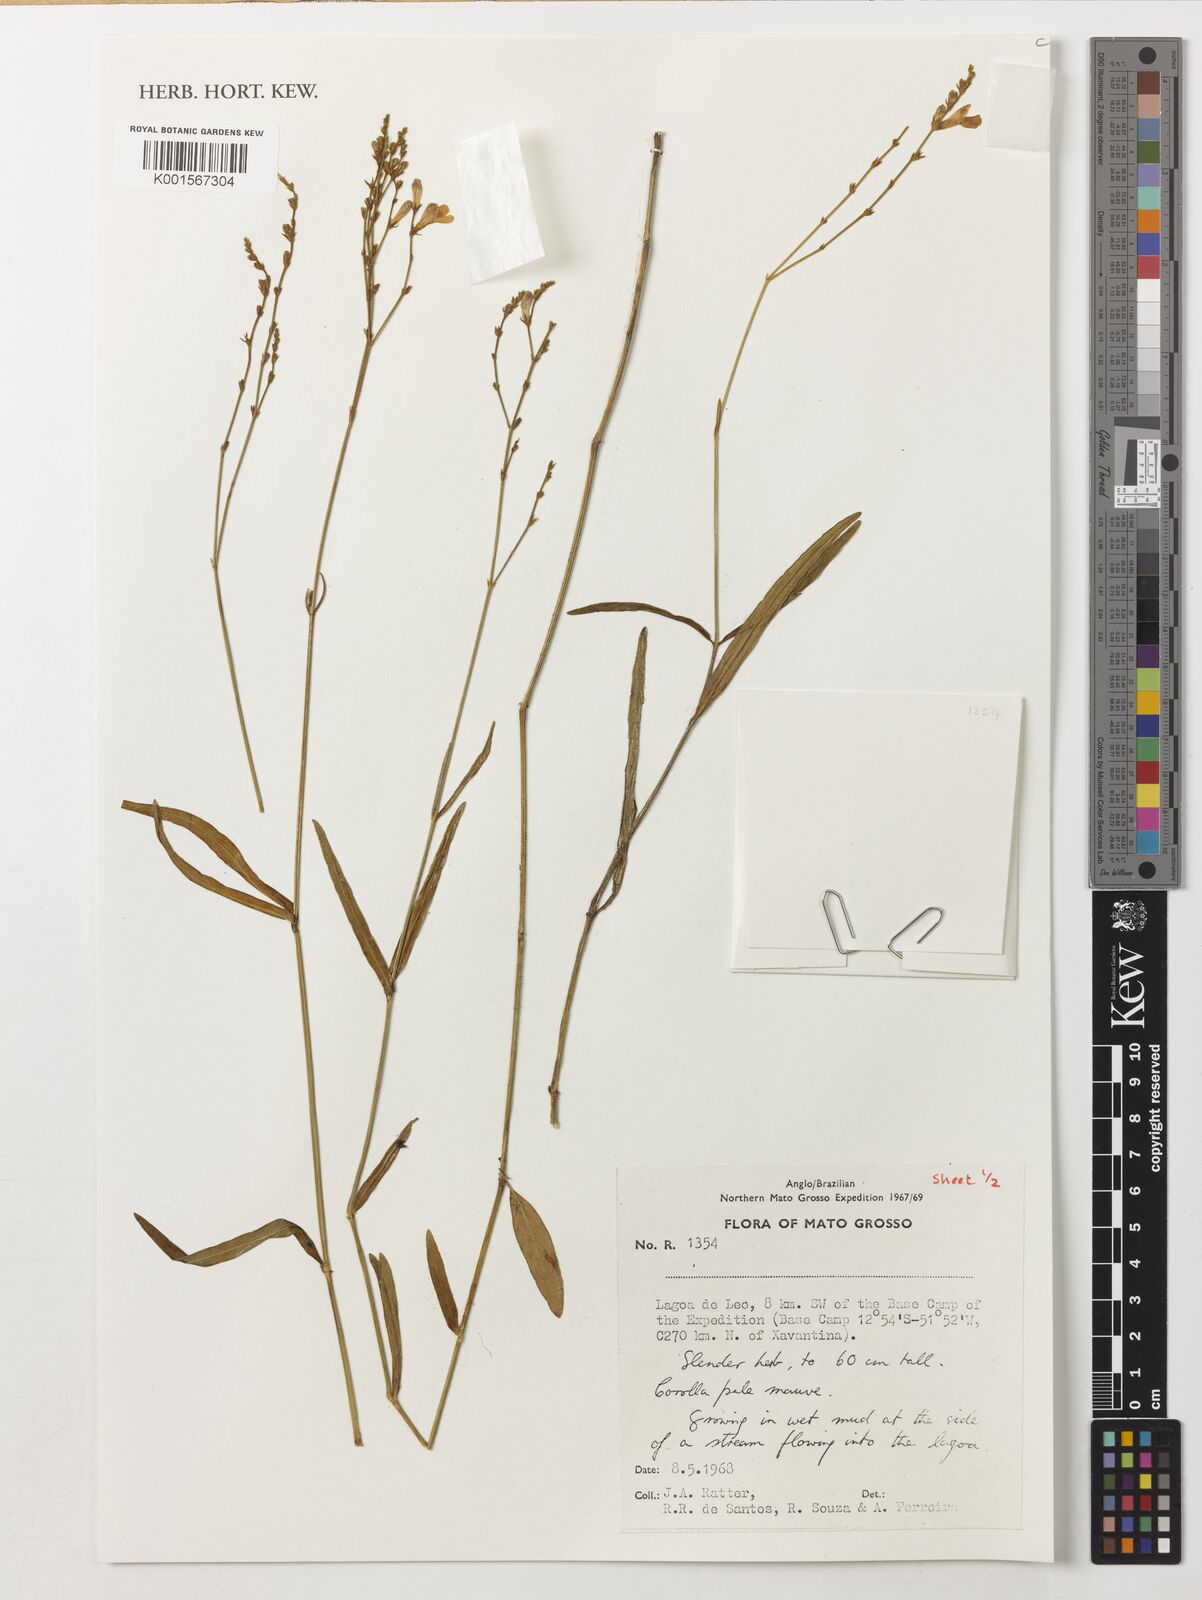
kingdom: Plantae
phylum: Tracheophyta
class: Magnoliopsida
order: Lamiales
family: Acanthaceae
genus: Justicia
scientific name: Justicia
